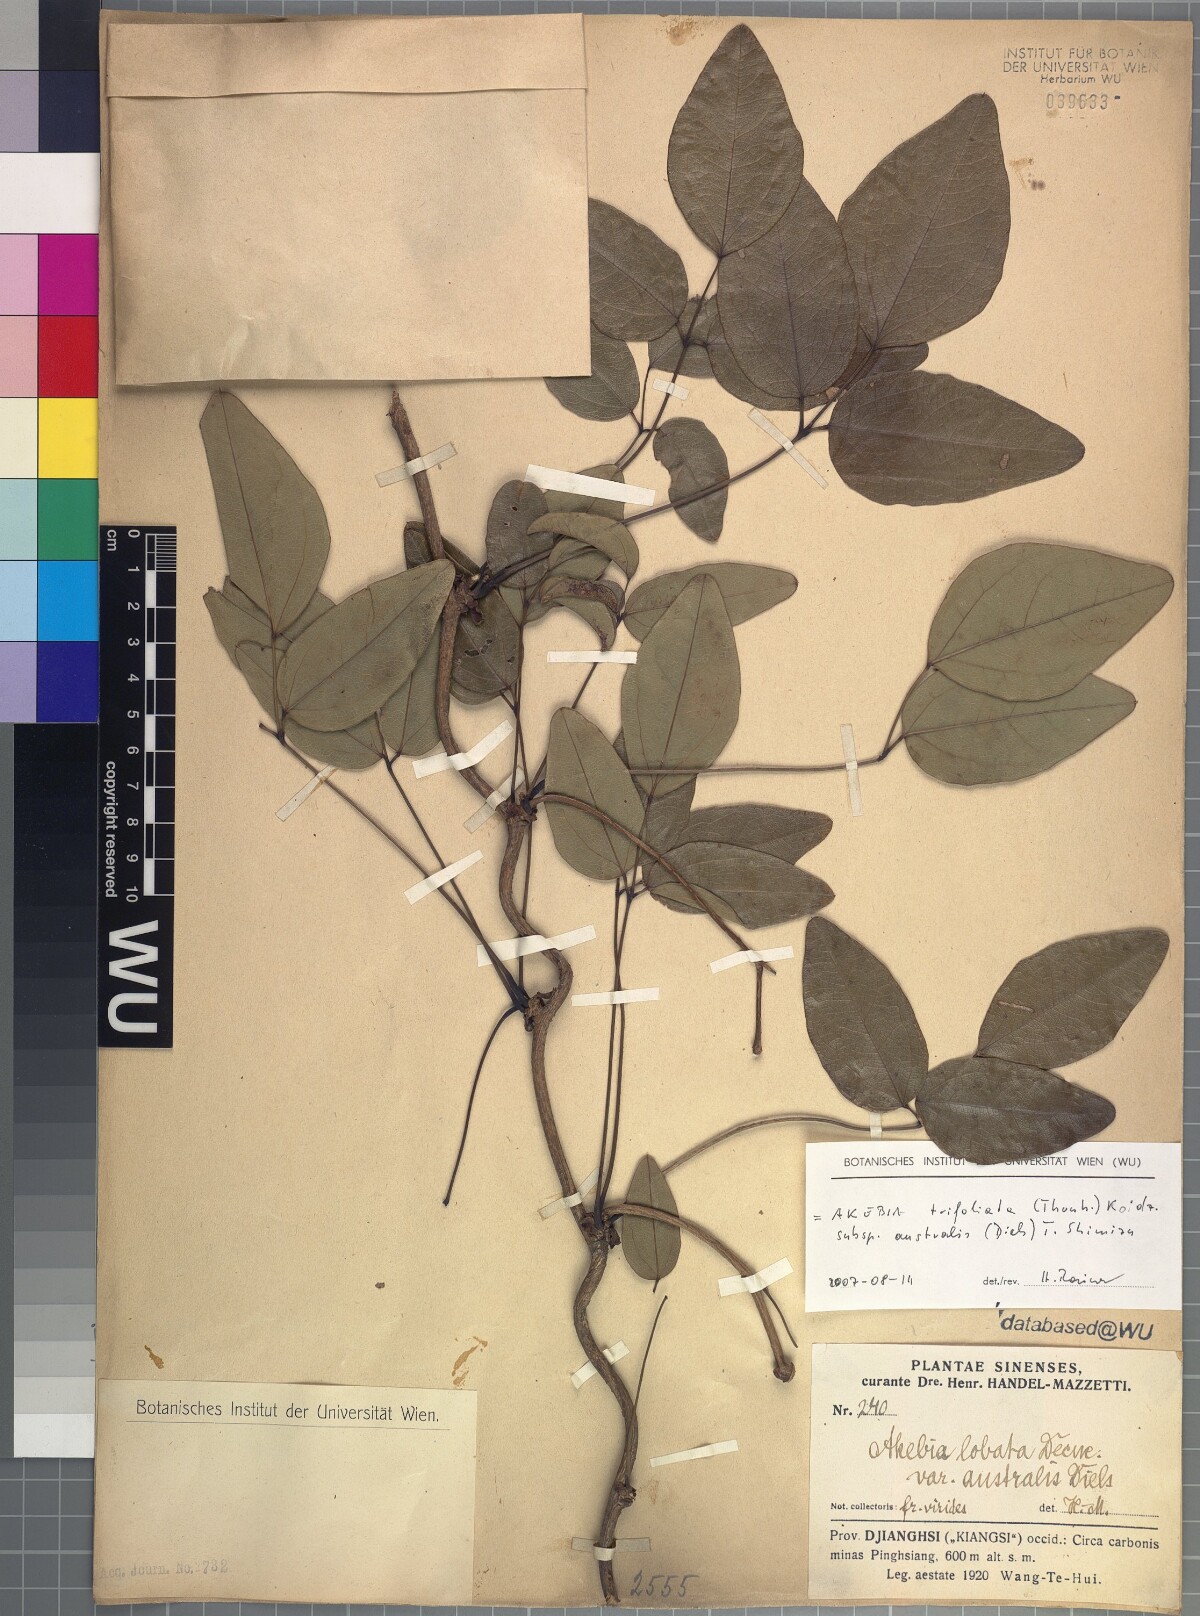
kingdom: Plantae
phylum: Tracheophyta
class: Magnoliopsida
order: Ranunculales
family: Lardizabalaceae
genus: Akebia
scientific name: Akebia trifoliata
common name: Chocolate-vine
